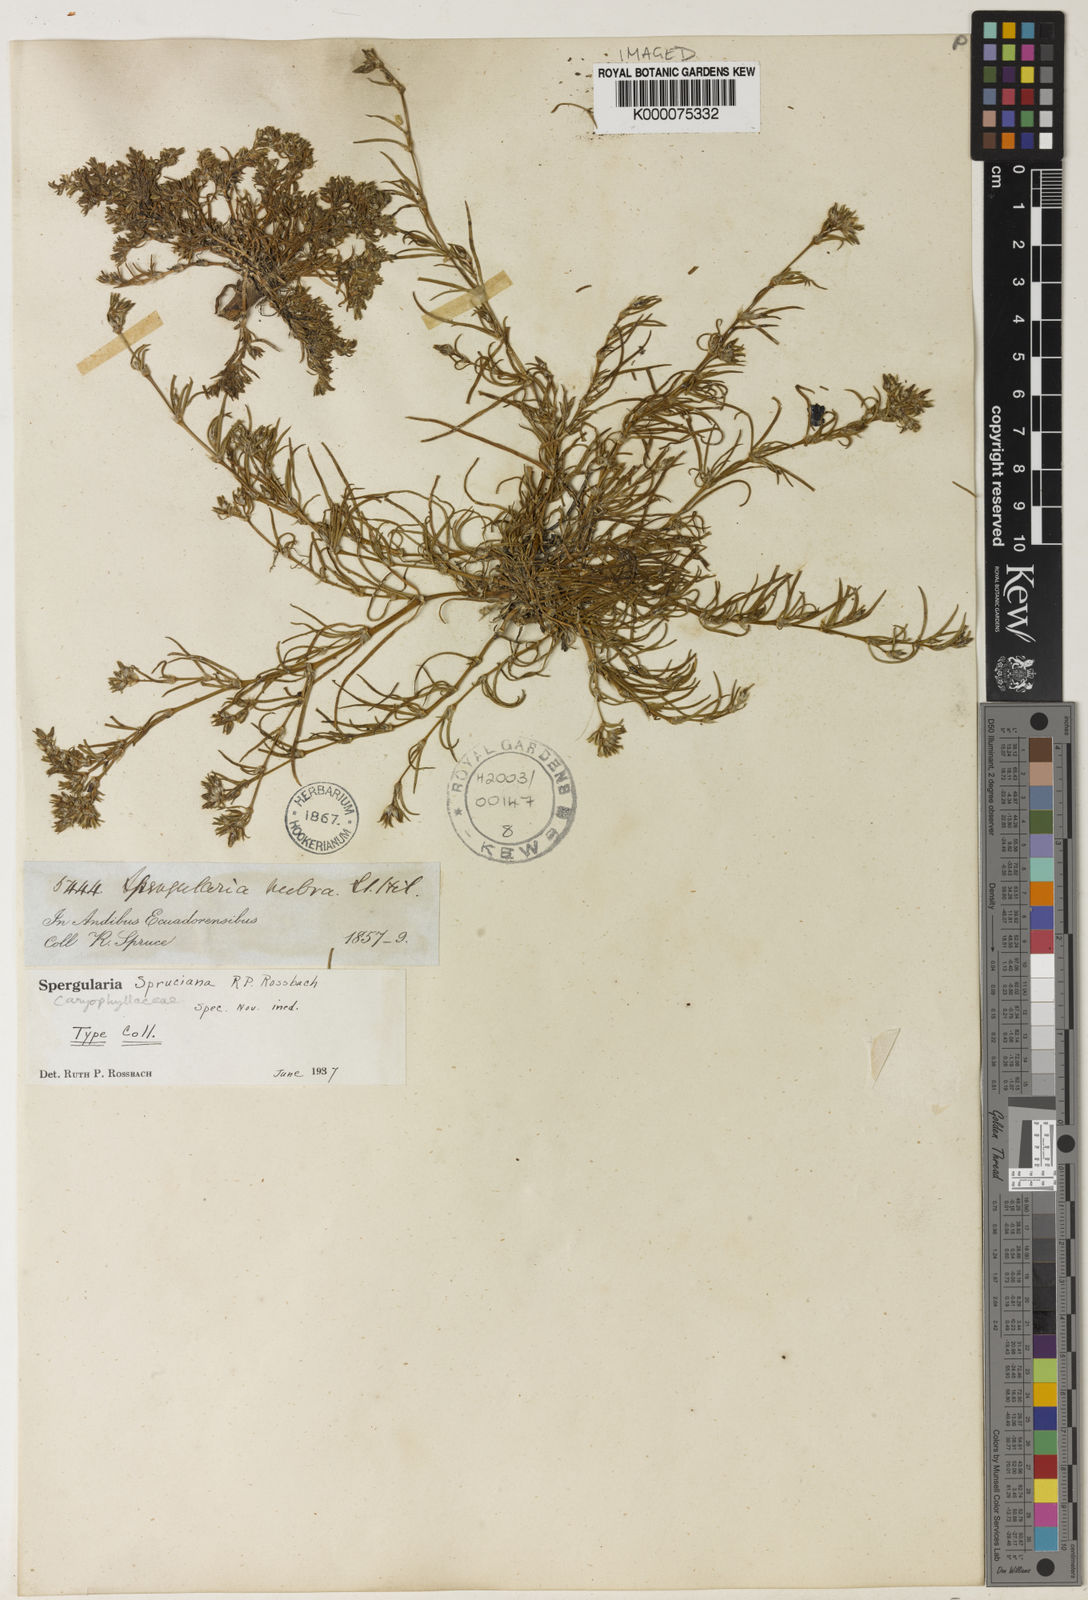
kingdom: Plantae
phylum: Tracheophyta
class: Magnoliopsida
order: Caryophyllales
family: Caryophyllaceae
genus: Spergularia
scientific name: Spergularia spruceana
